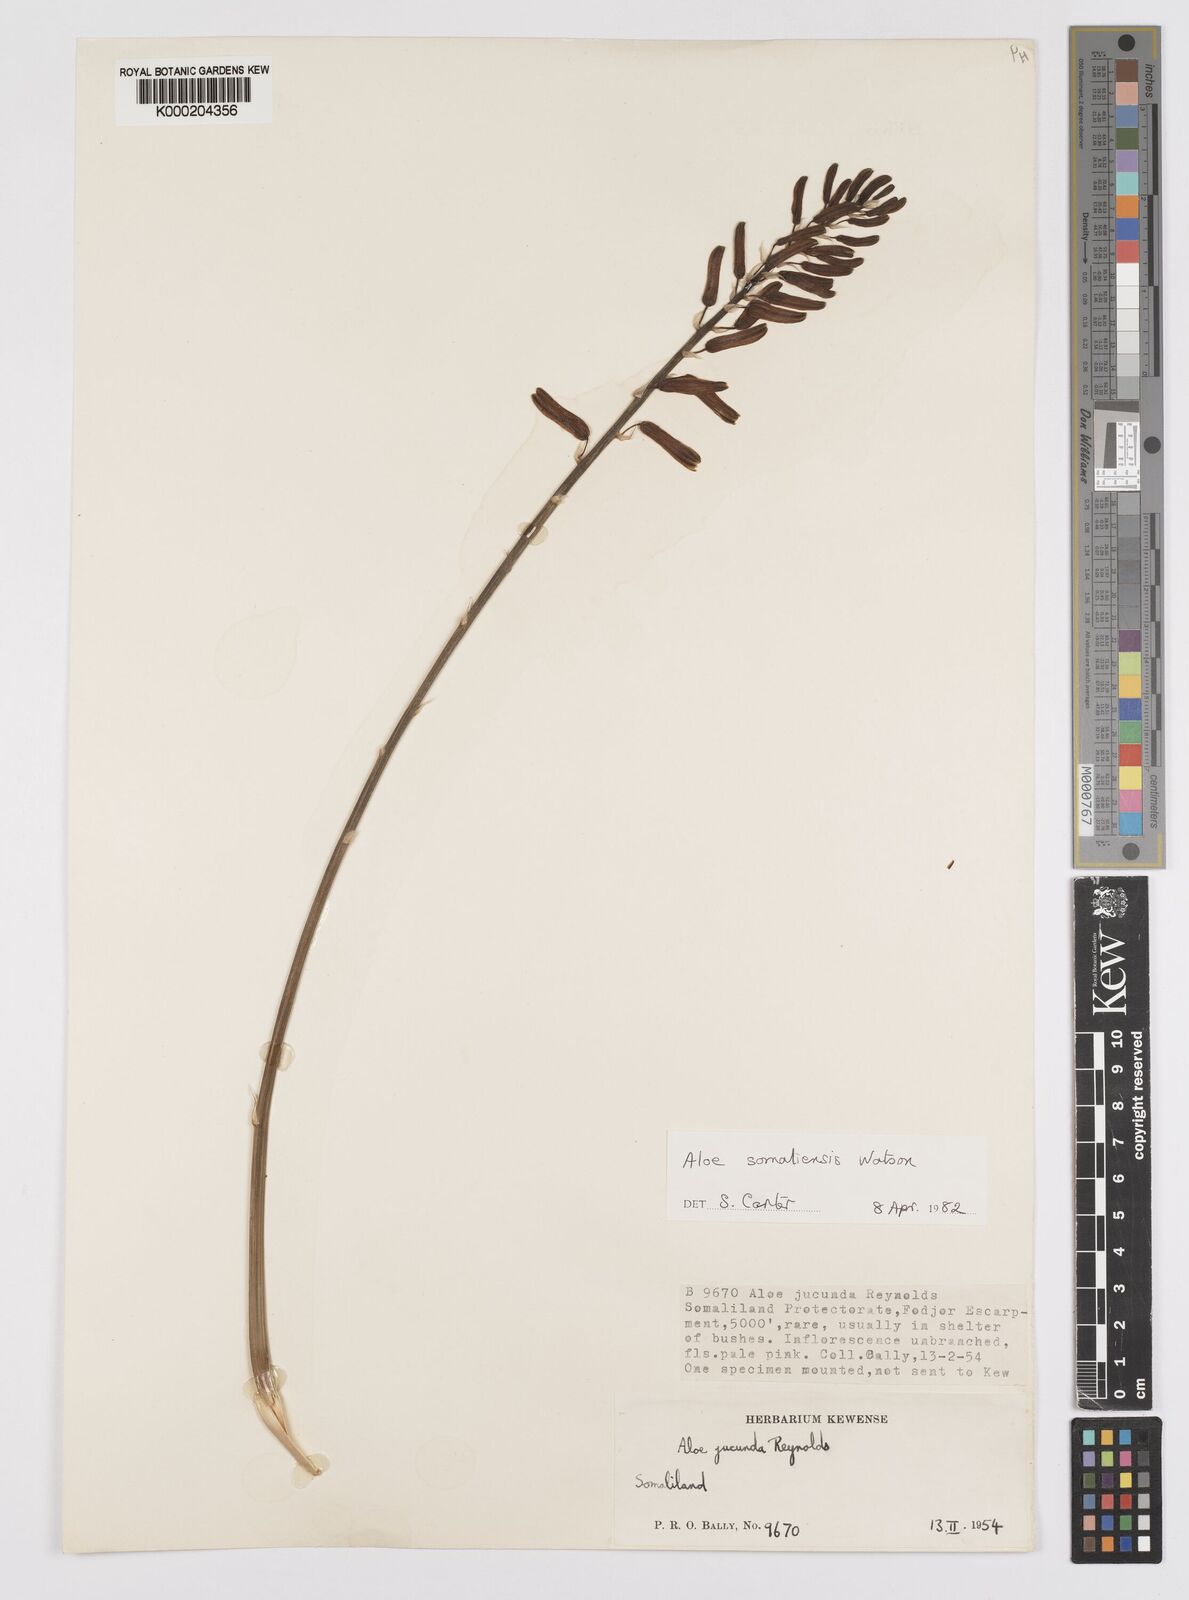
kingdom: Plantae
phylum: Tracheophyta
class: Liliopsida
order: Asparagales
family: Asphodelaceae
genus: Aloe
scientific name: Aloe somaliensis
